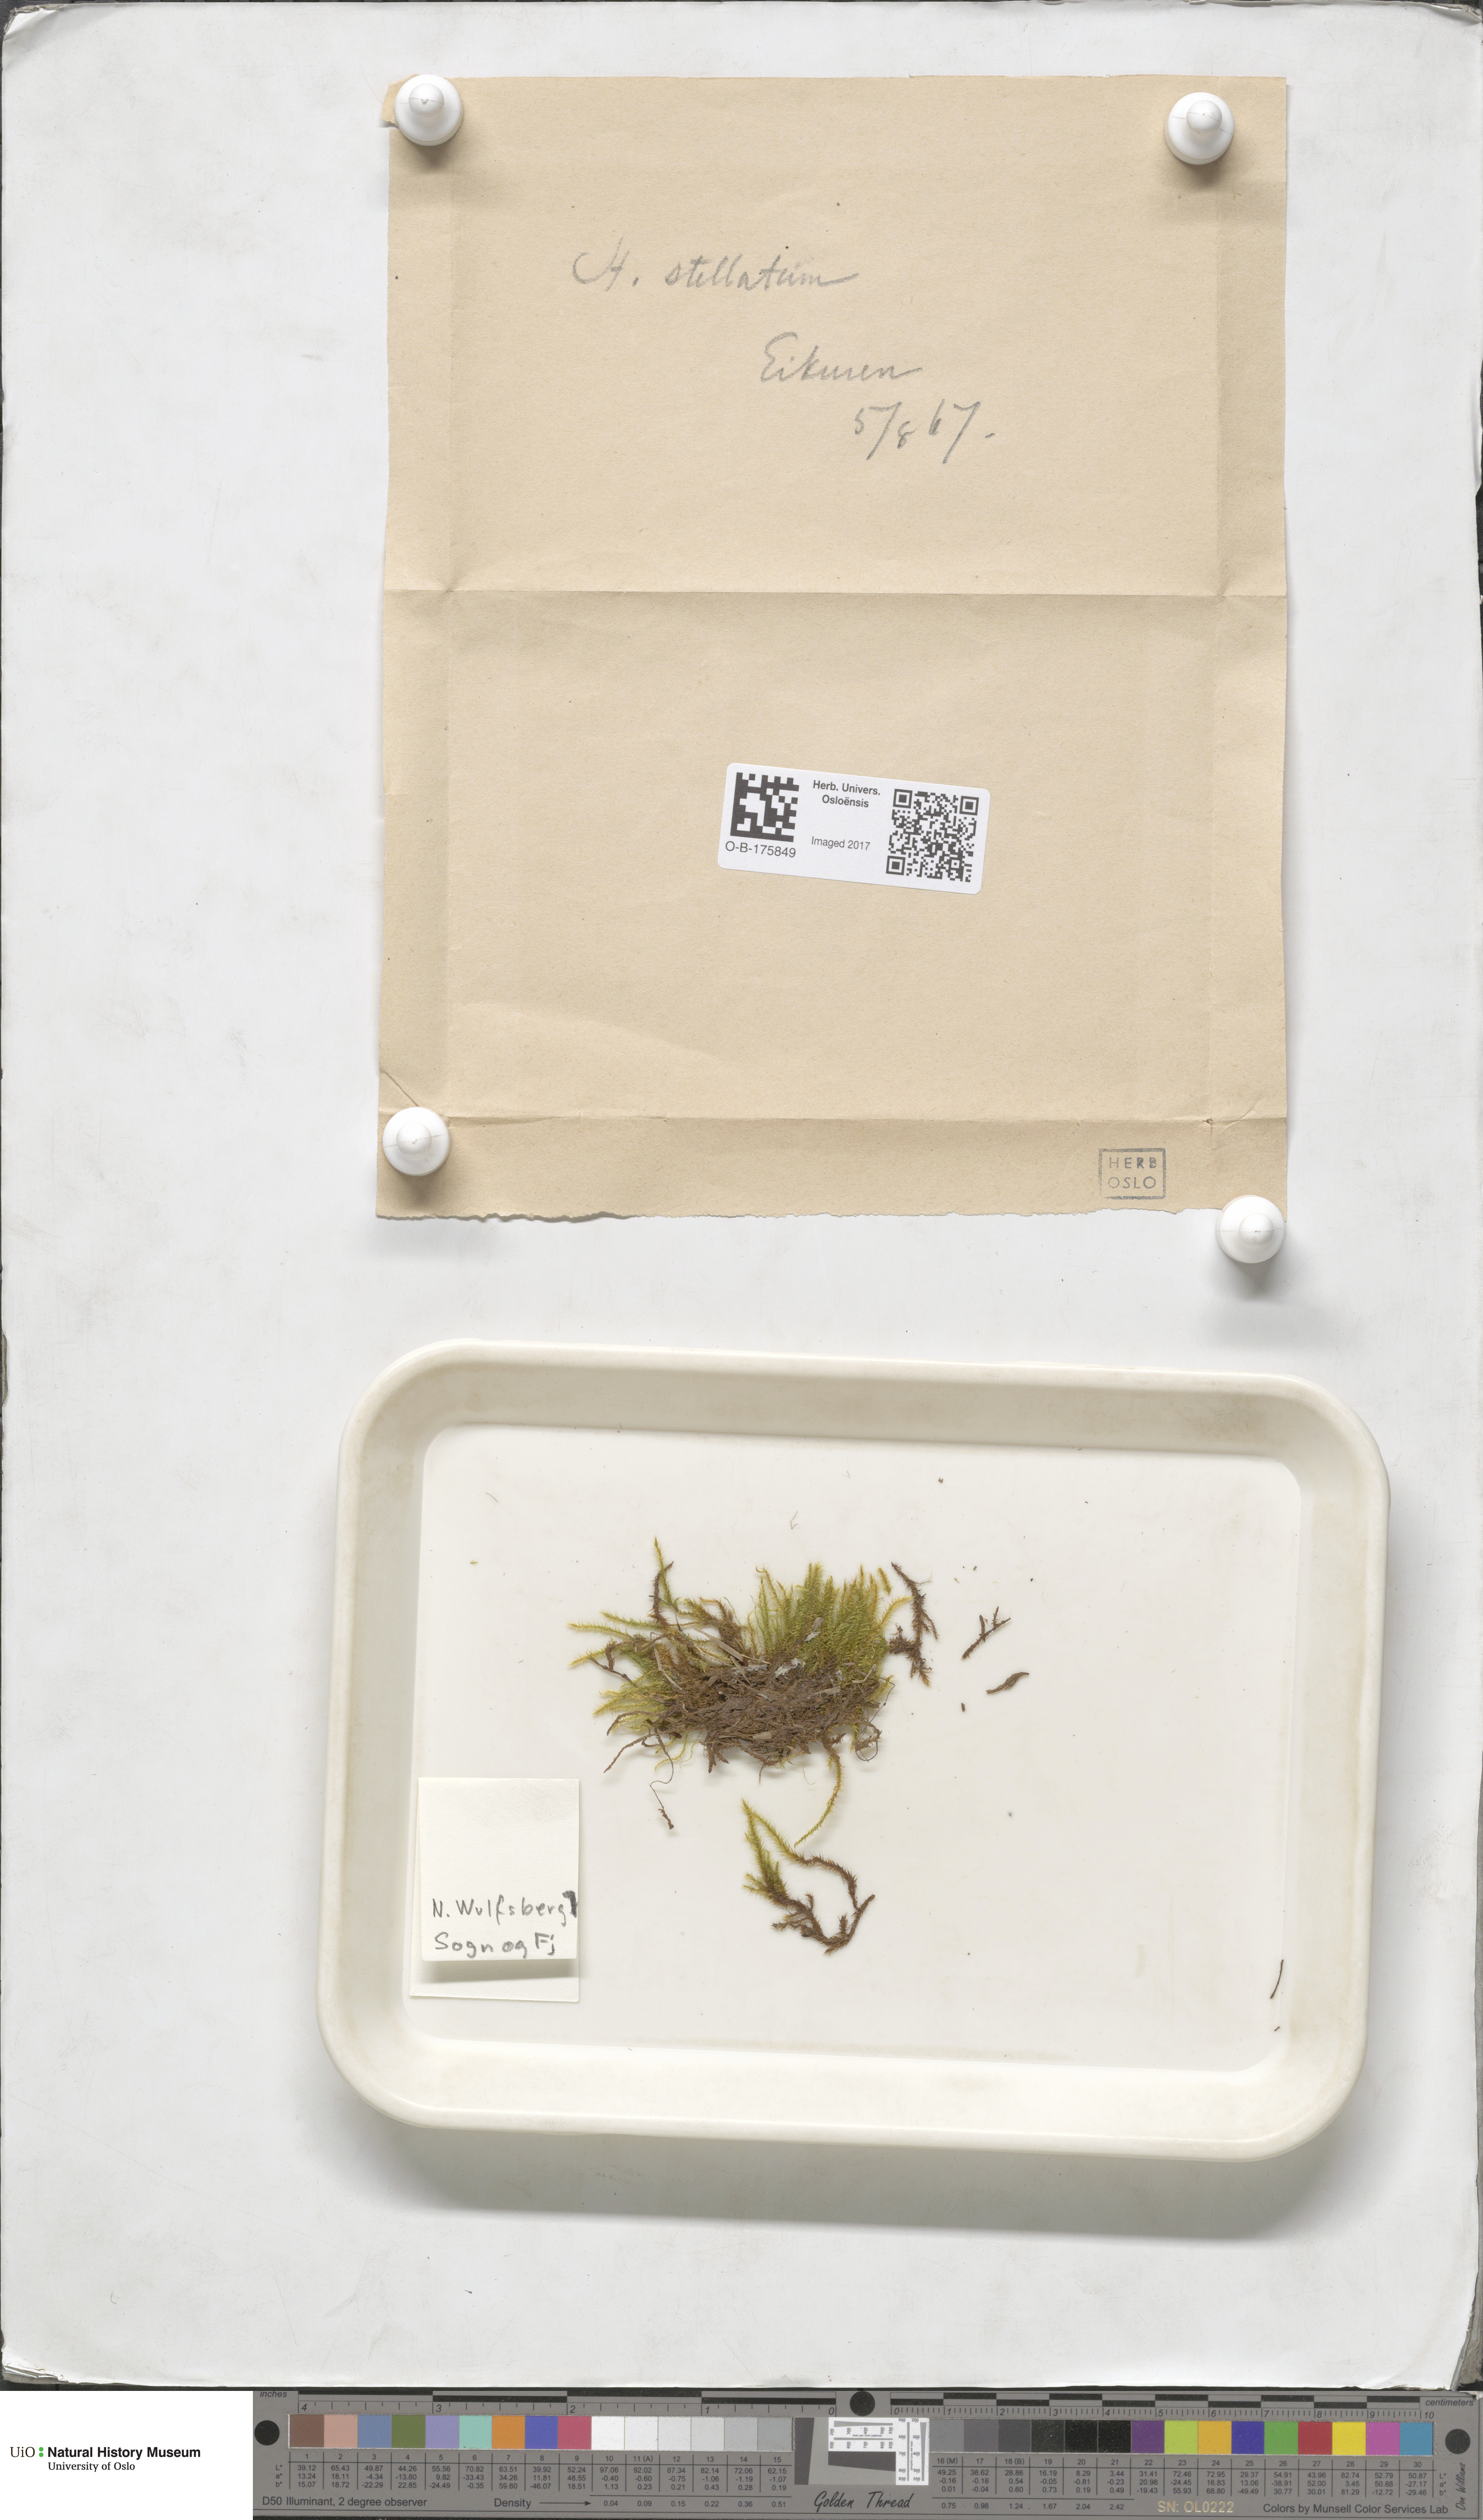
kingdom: Plantae
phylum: Bryophyta
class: Bryopsida
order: Hypnales
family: Amblystegiaceae
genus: Campylium
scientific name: Campylium stellatum
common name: Yellow starry fen moss
